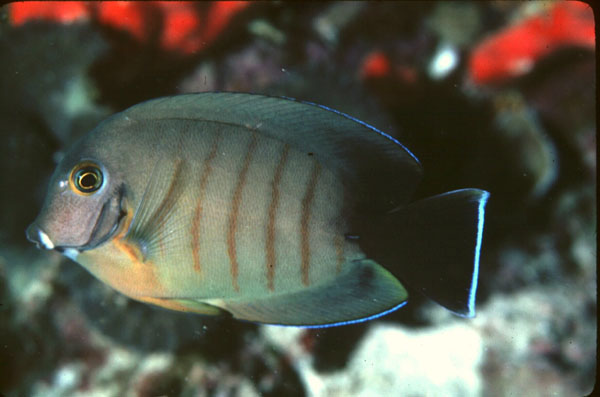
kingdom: Animalia
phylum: Chordata
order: Perciformes
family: Acanthuridae
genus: Acanthurus
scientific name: Acanthurus tristis
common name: Blackcheek surgeonfish
